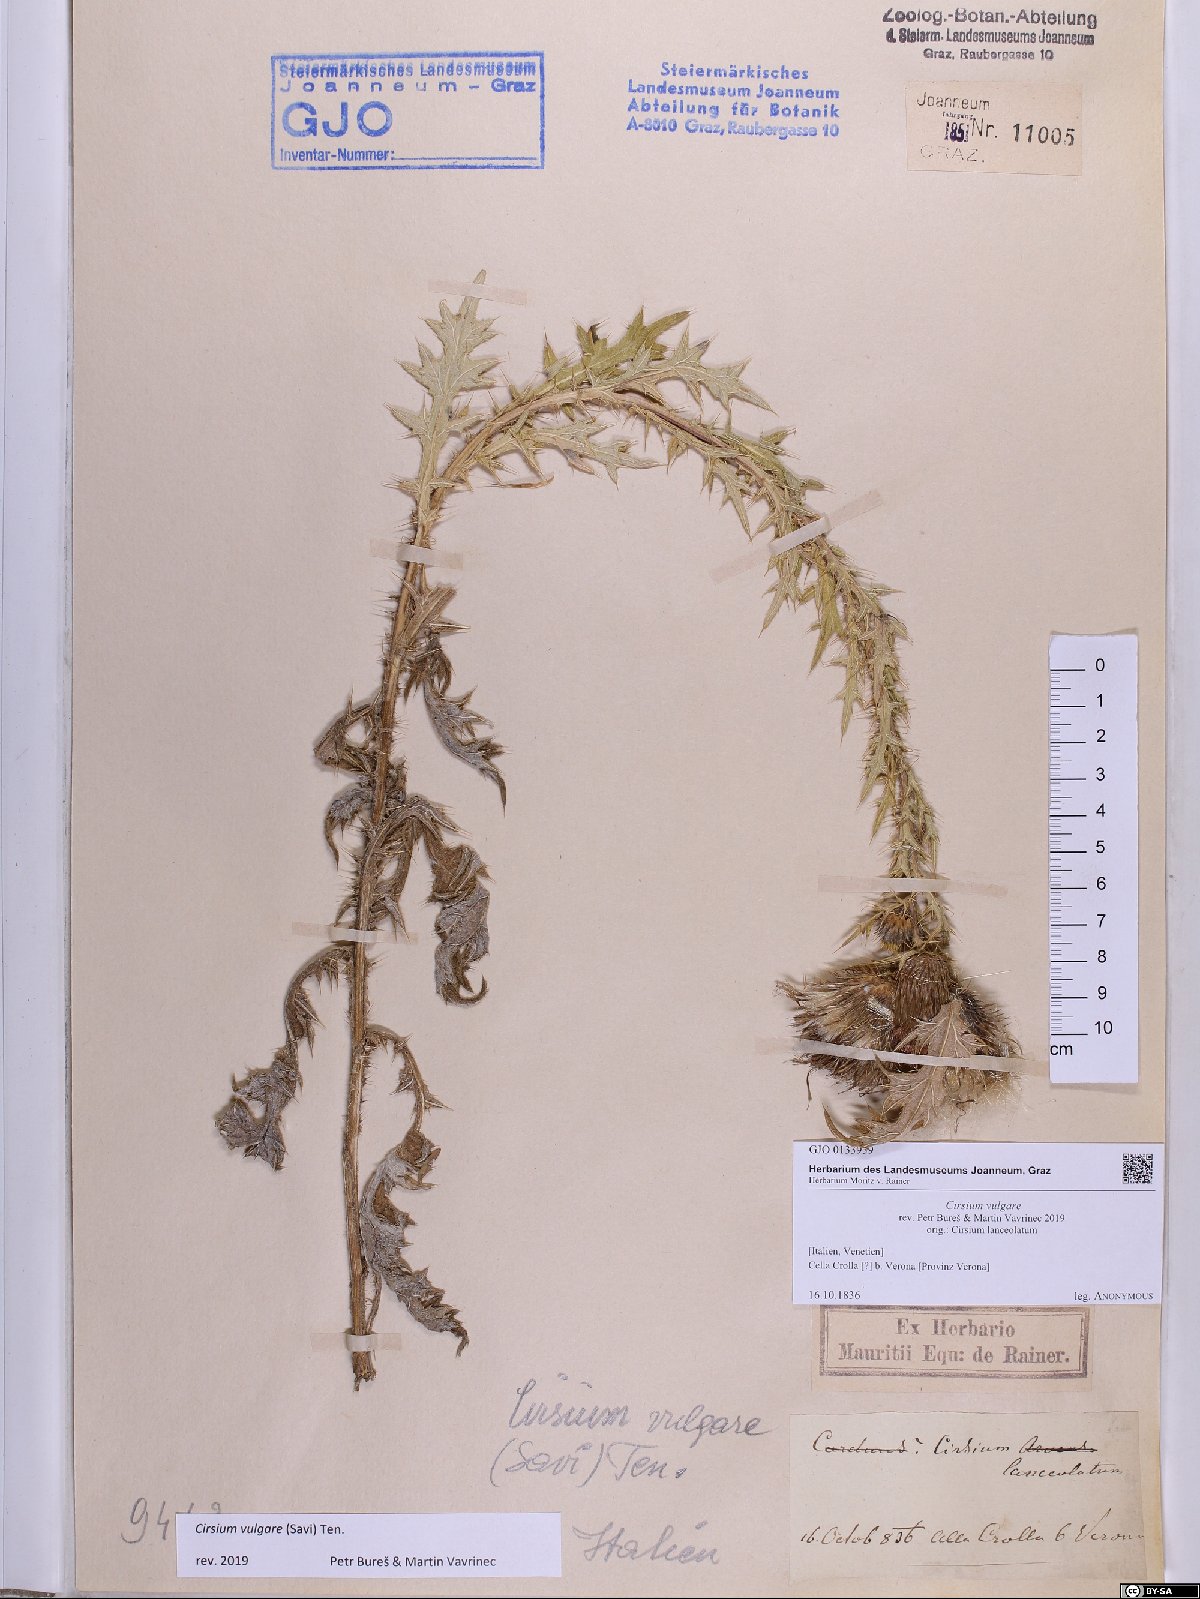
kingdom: Plantae
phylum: Tracheophyta
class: Magnoliopsida
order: Asterales
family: Asteraceae
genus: Cirsium
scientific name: Cirsium vulgare
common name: Bull thistle
